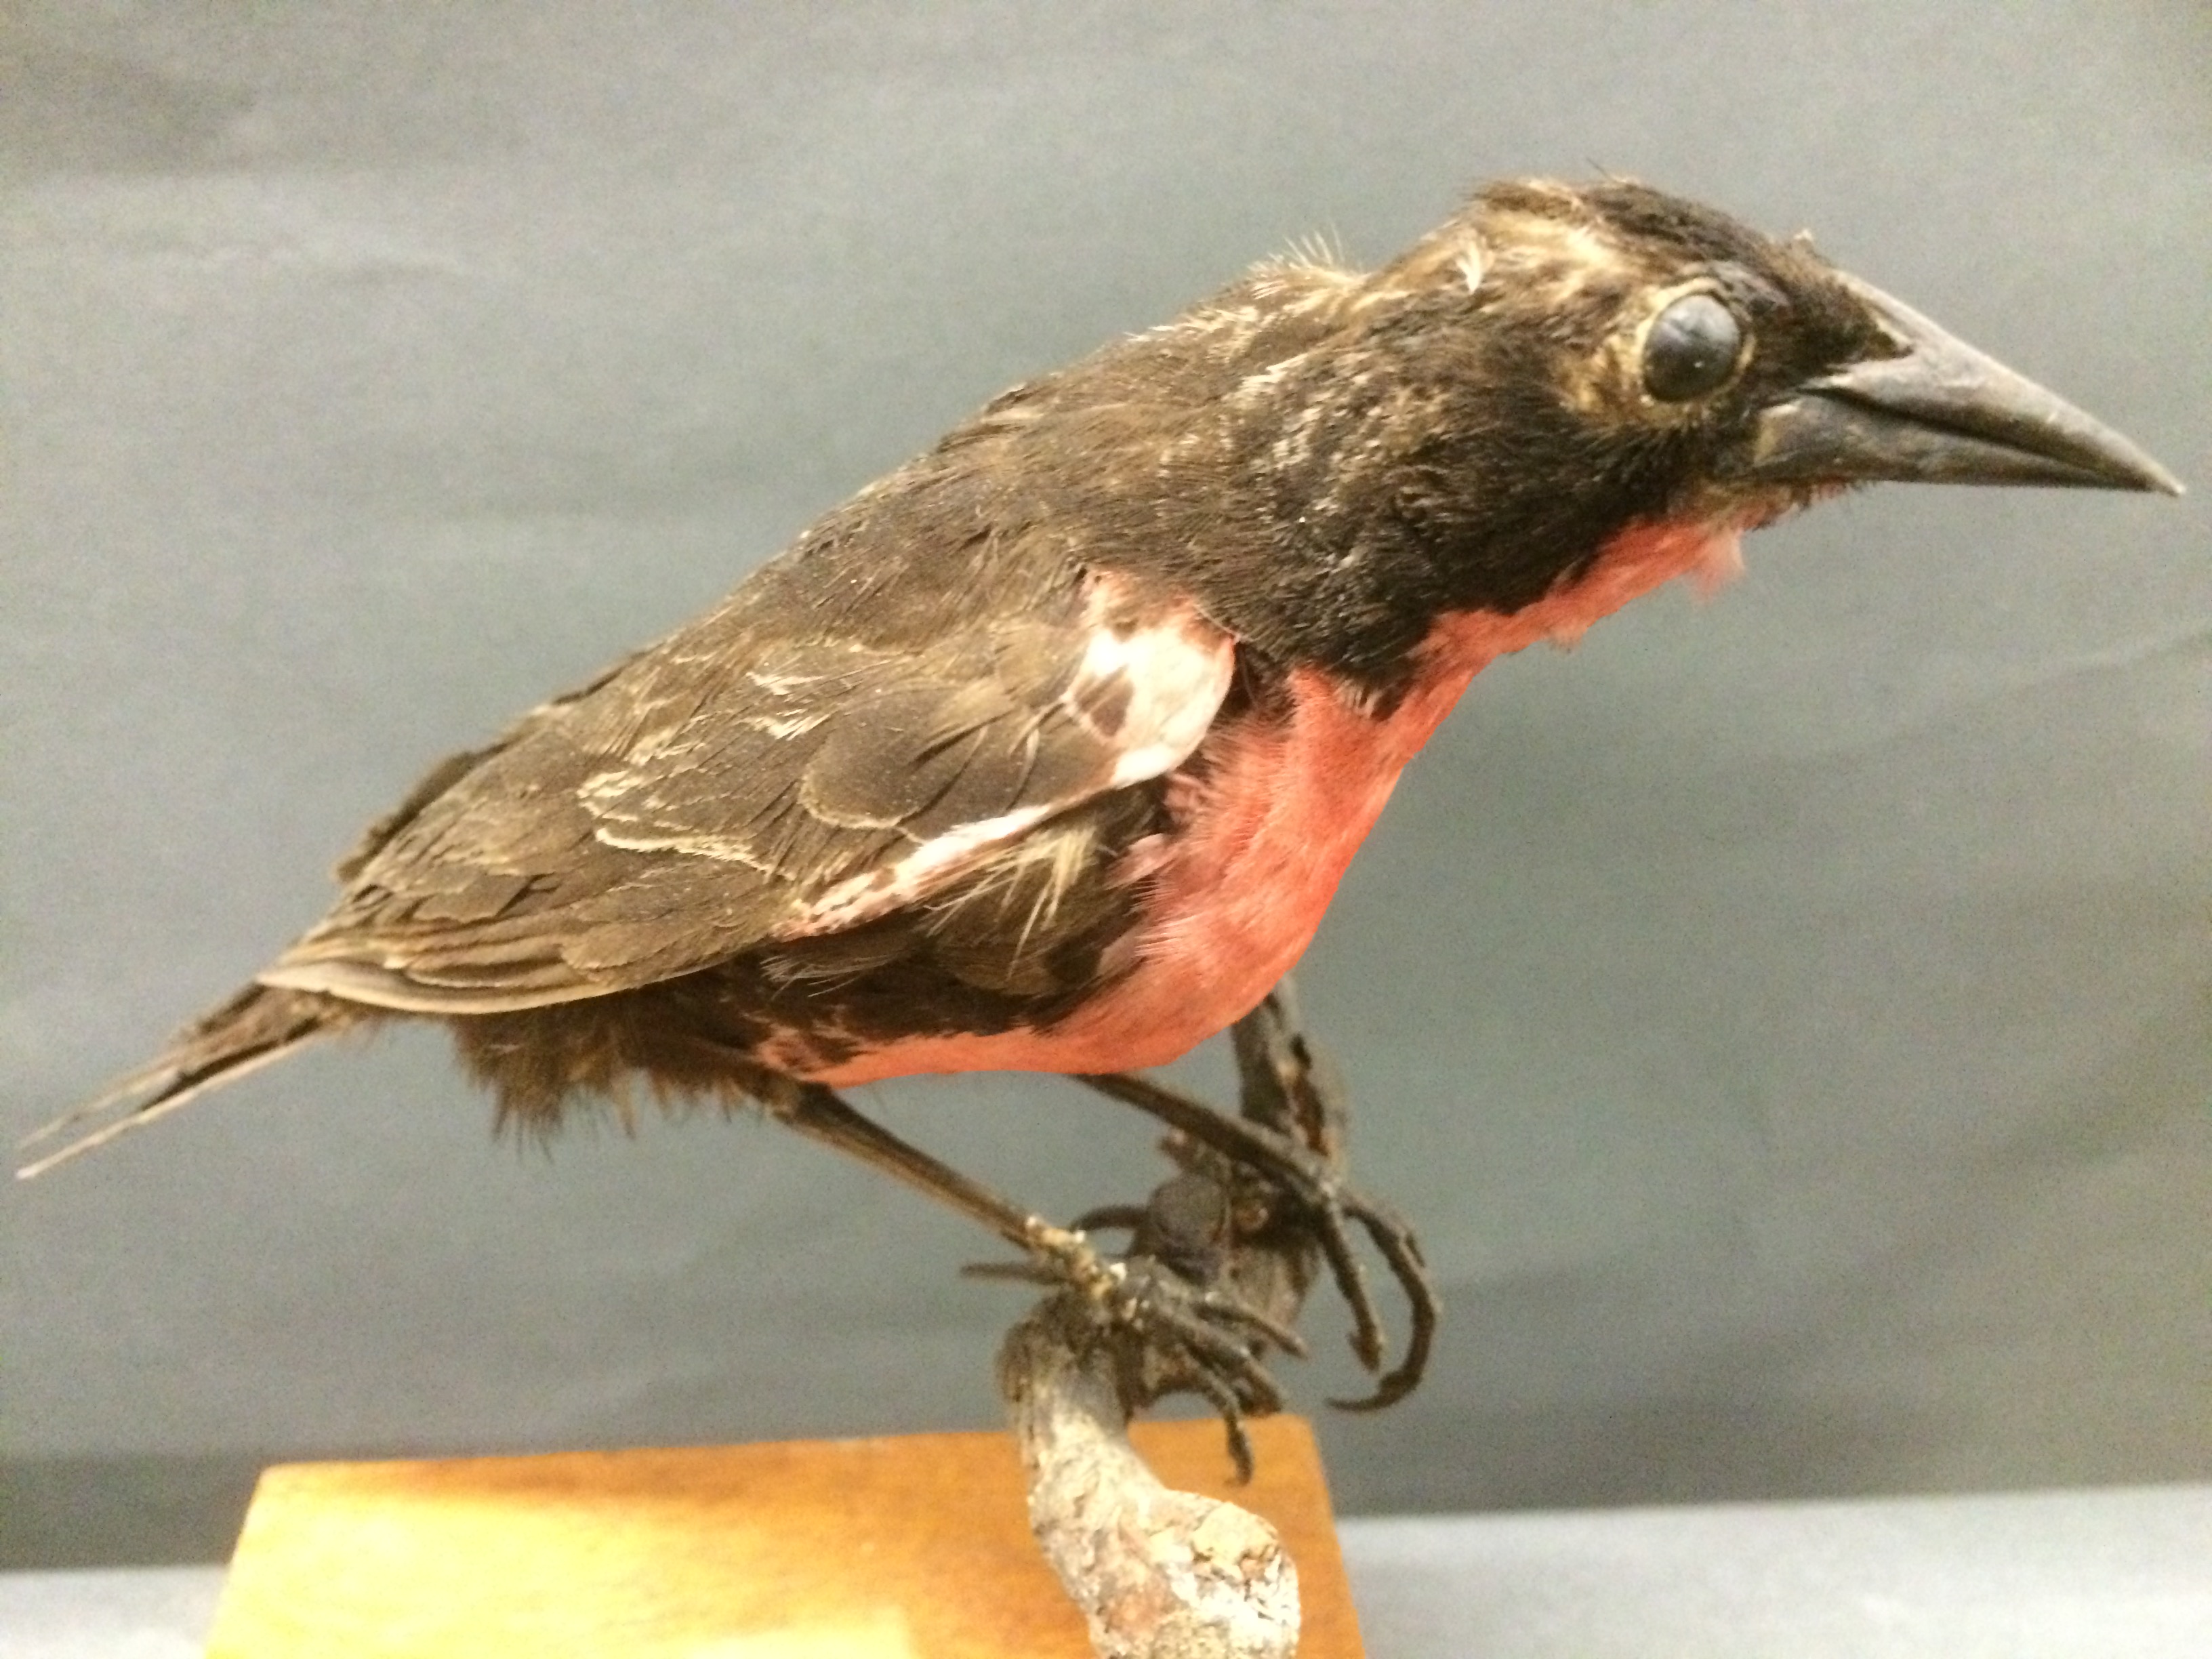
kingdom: Animalia
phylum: Chordata
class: Aves
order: Passeriformes
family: Icteridae
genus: Sturnella
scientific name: Sturnella militaris
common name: Red-breasted blackbird
